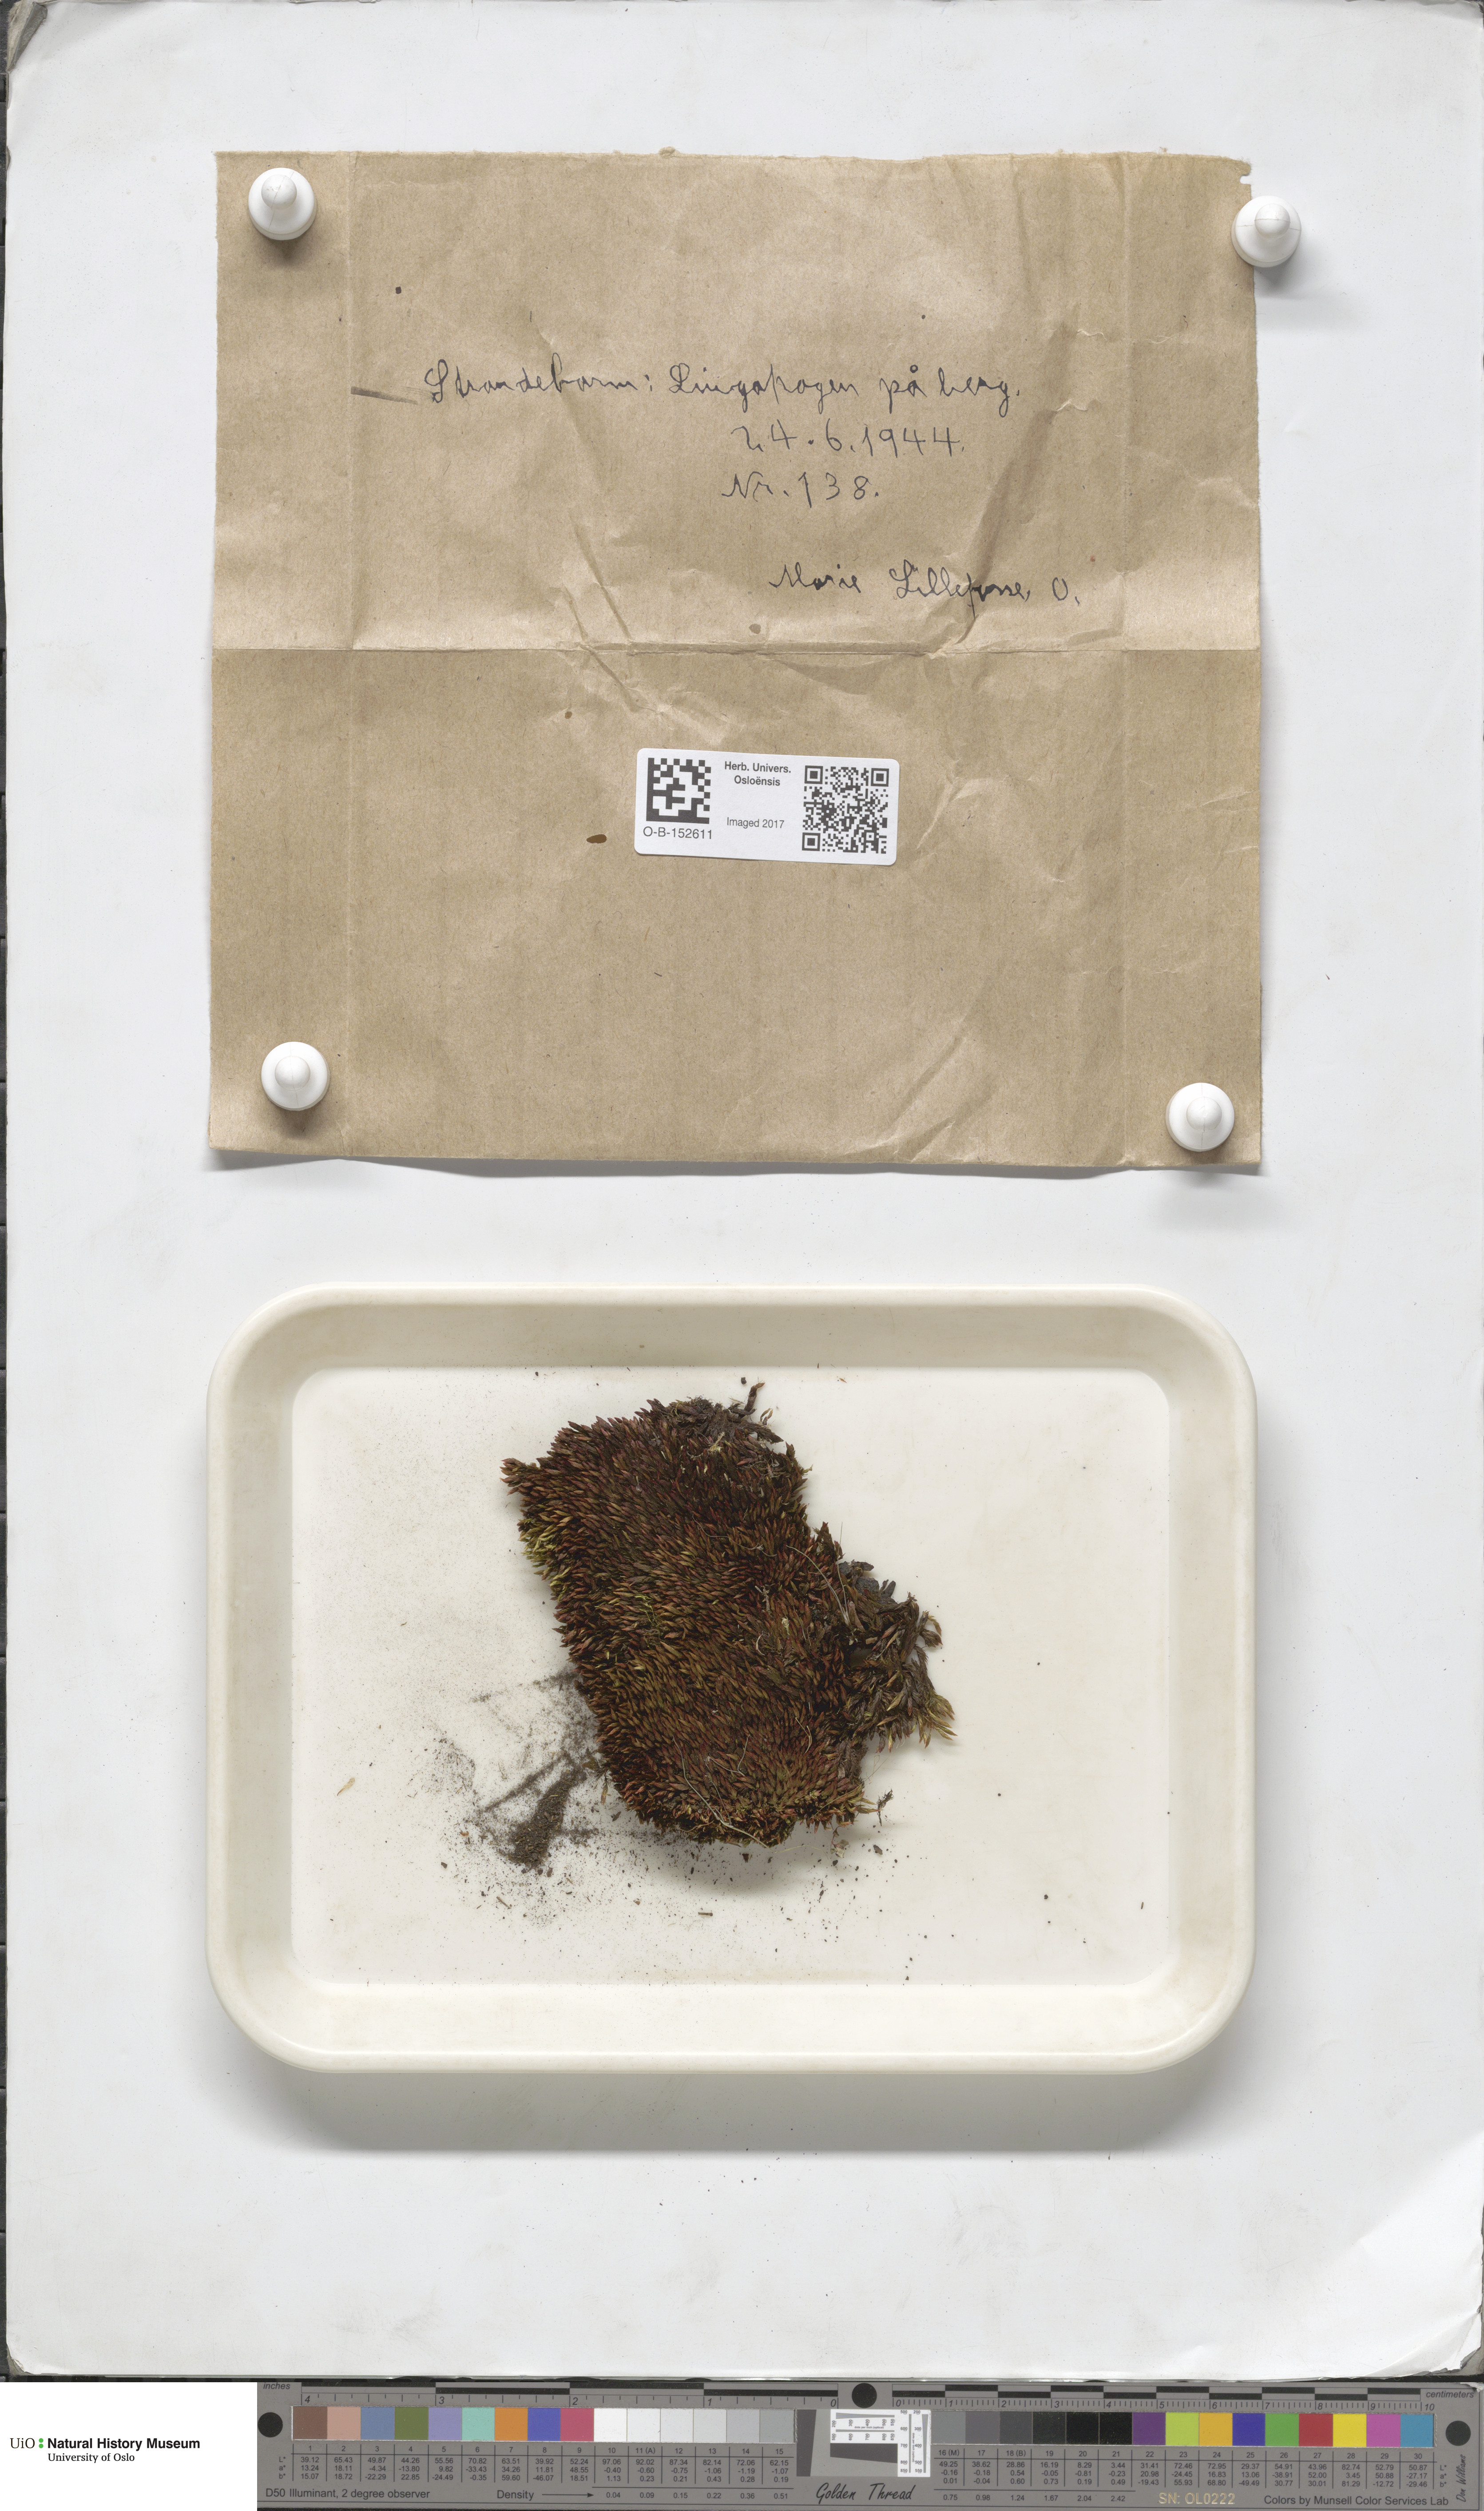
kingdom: Plantae
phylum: Bryophyta
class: Bryopsida
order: Bryales
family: Bryaceae
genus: Imbribryum
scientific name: Imbribryum alpinum
